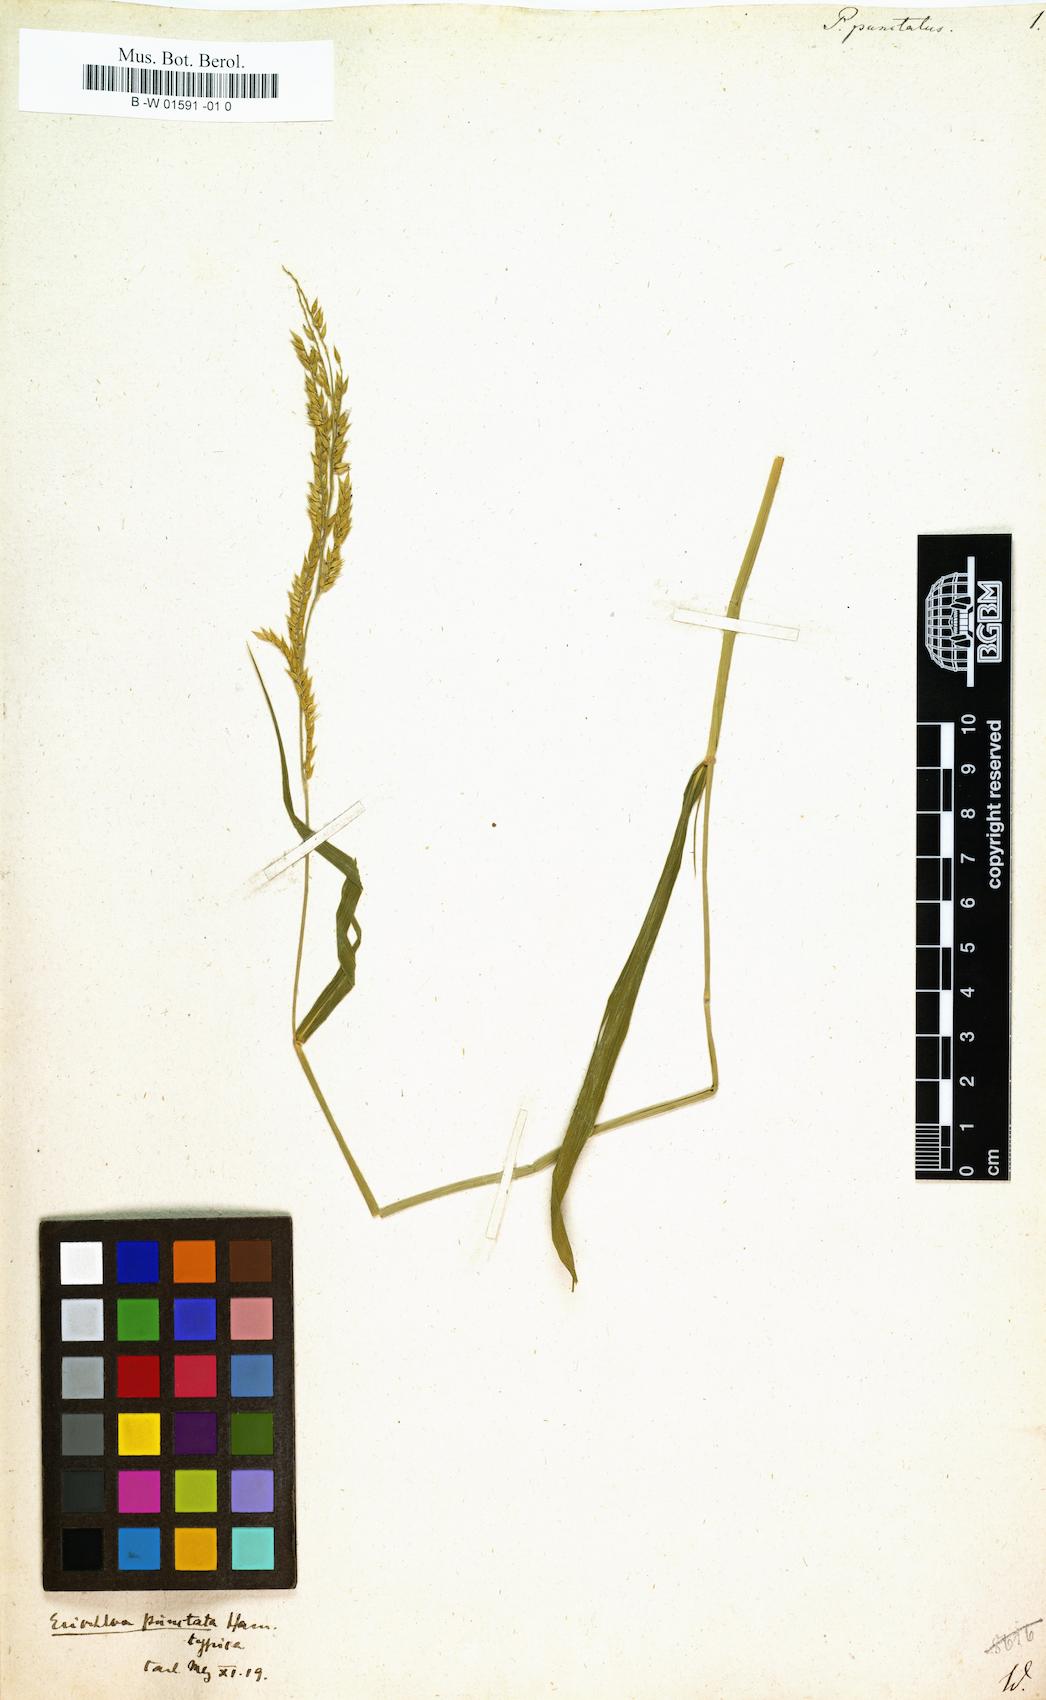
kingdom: Plantae
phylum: Tracheophyta
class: Liliopsida
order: Poales
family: Poaceae
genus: Eriochloa
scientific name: Eriochloa punctata
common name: Louisiana cupgrass
